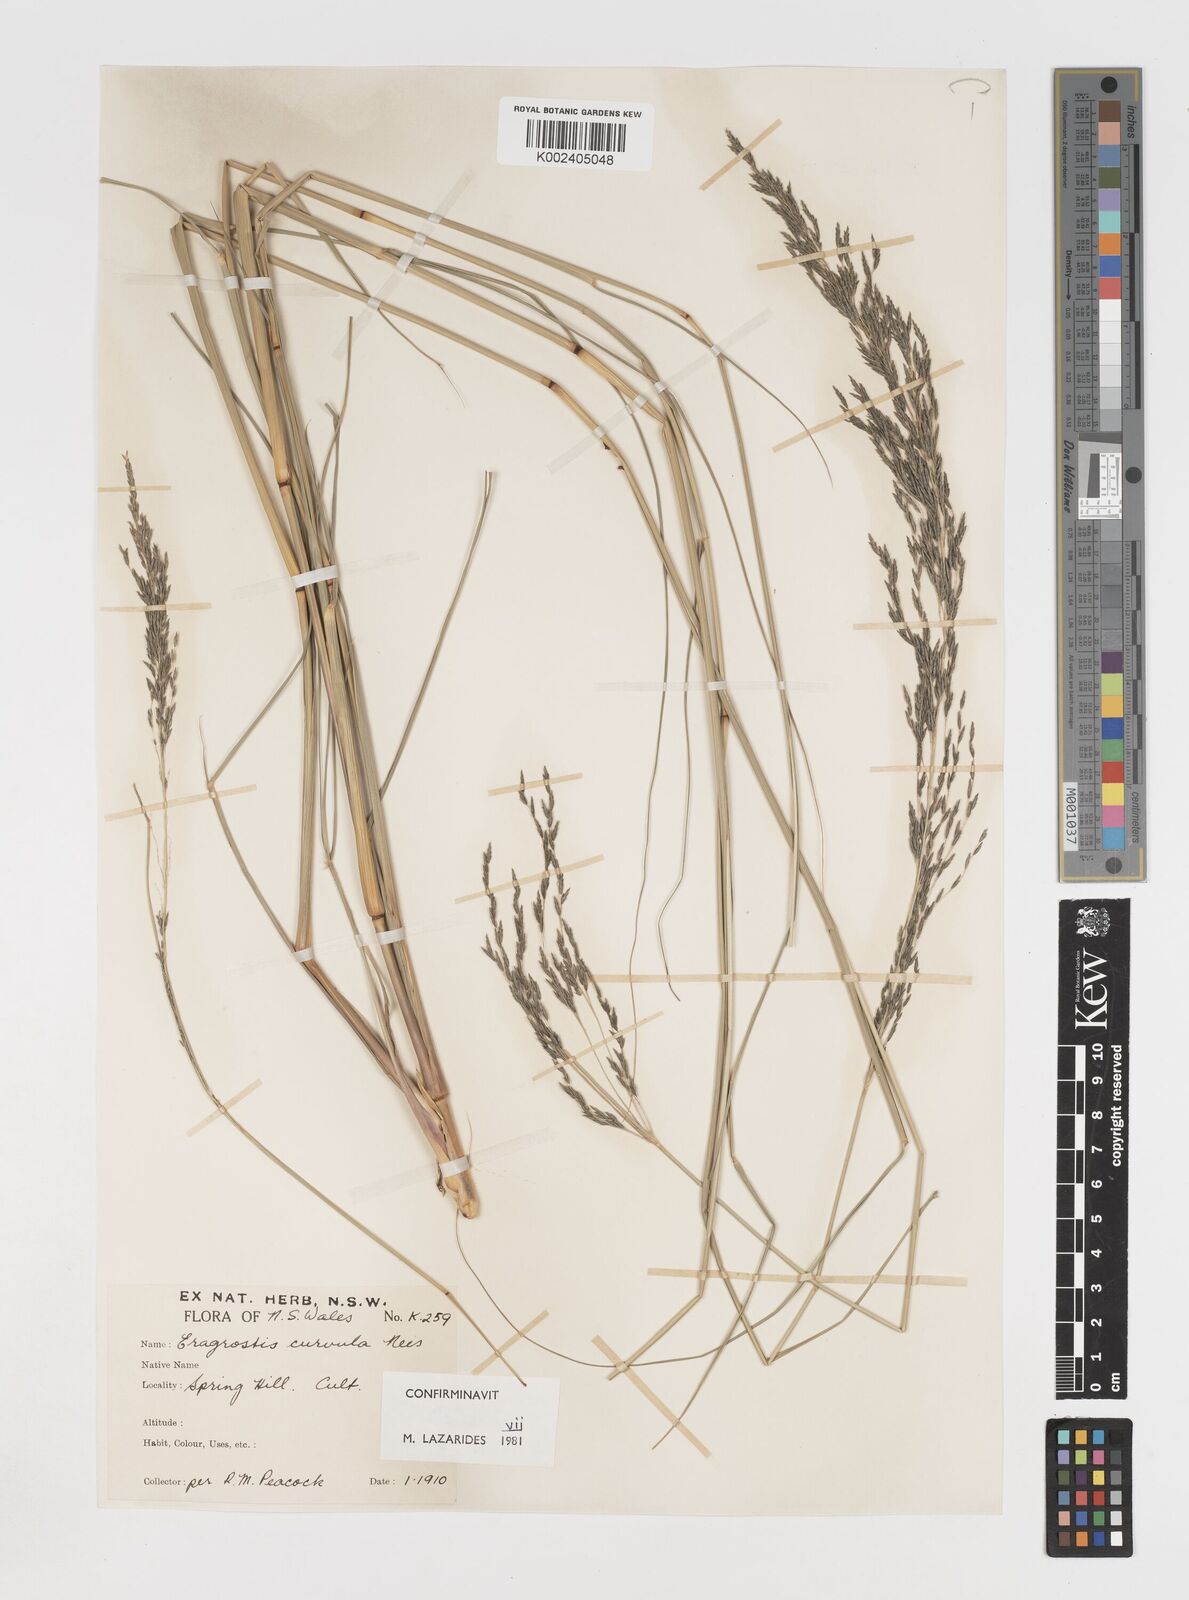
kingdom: Plantae
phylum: Tracheophyta
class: Liliopsida
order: Poales
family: Poaceae
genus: Eragrostis
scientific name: Eragrostis curvula
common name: African love-grass
